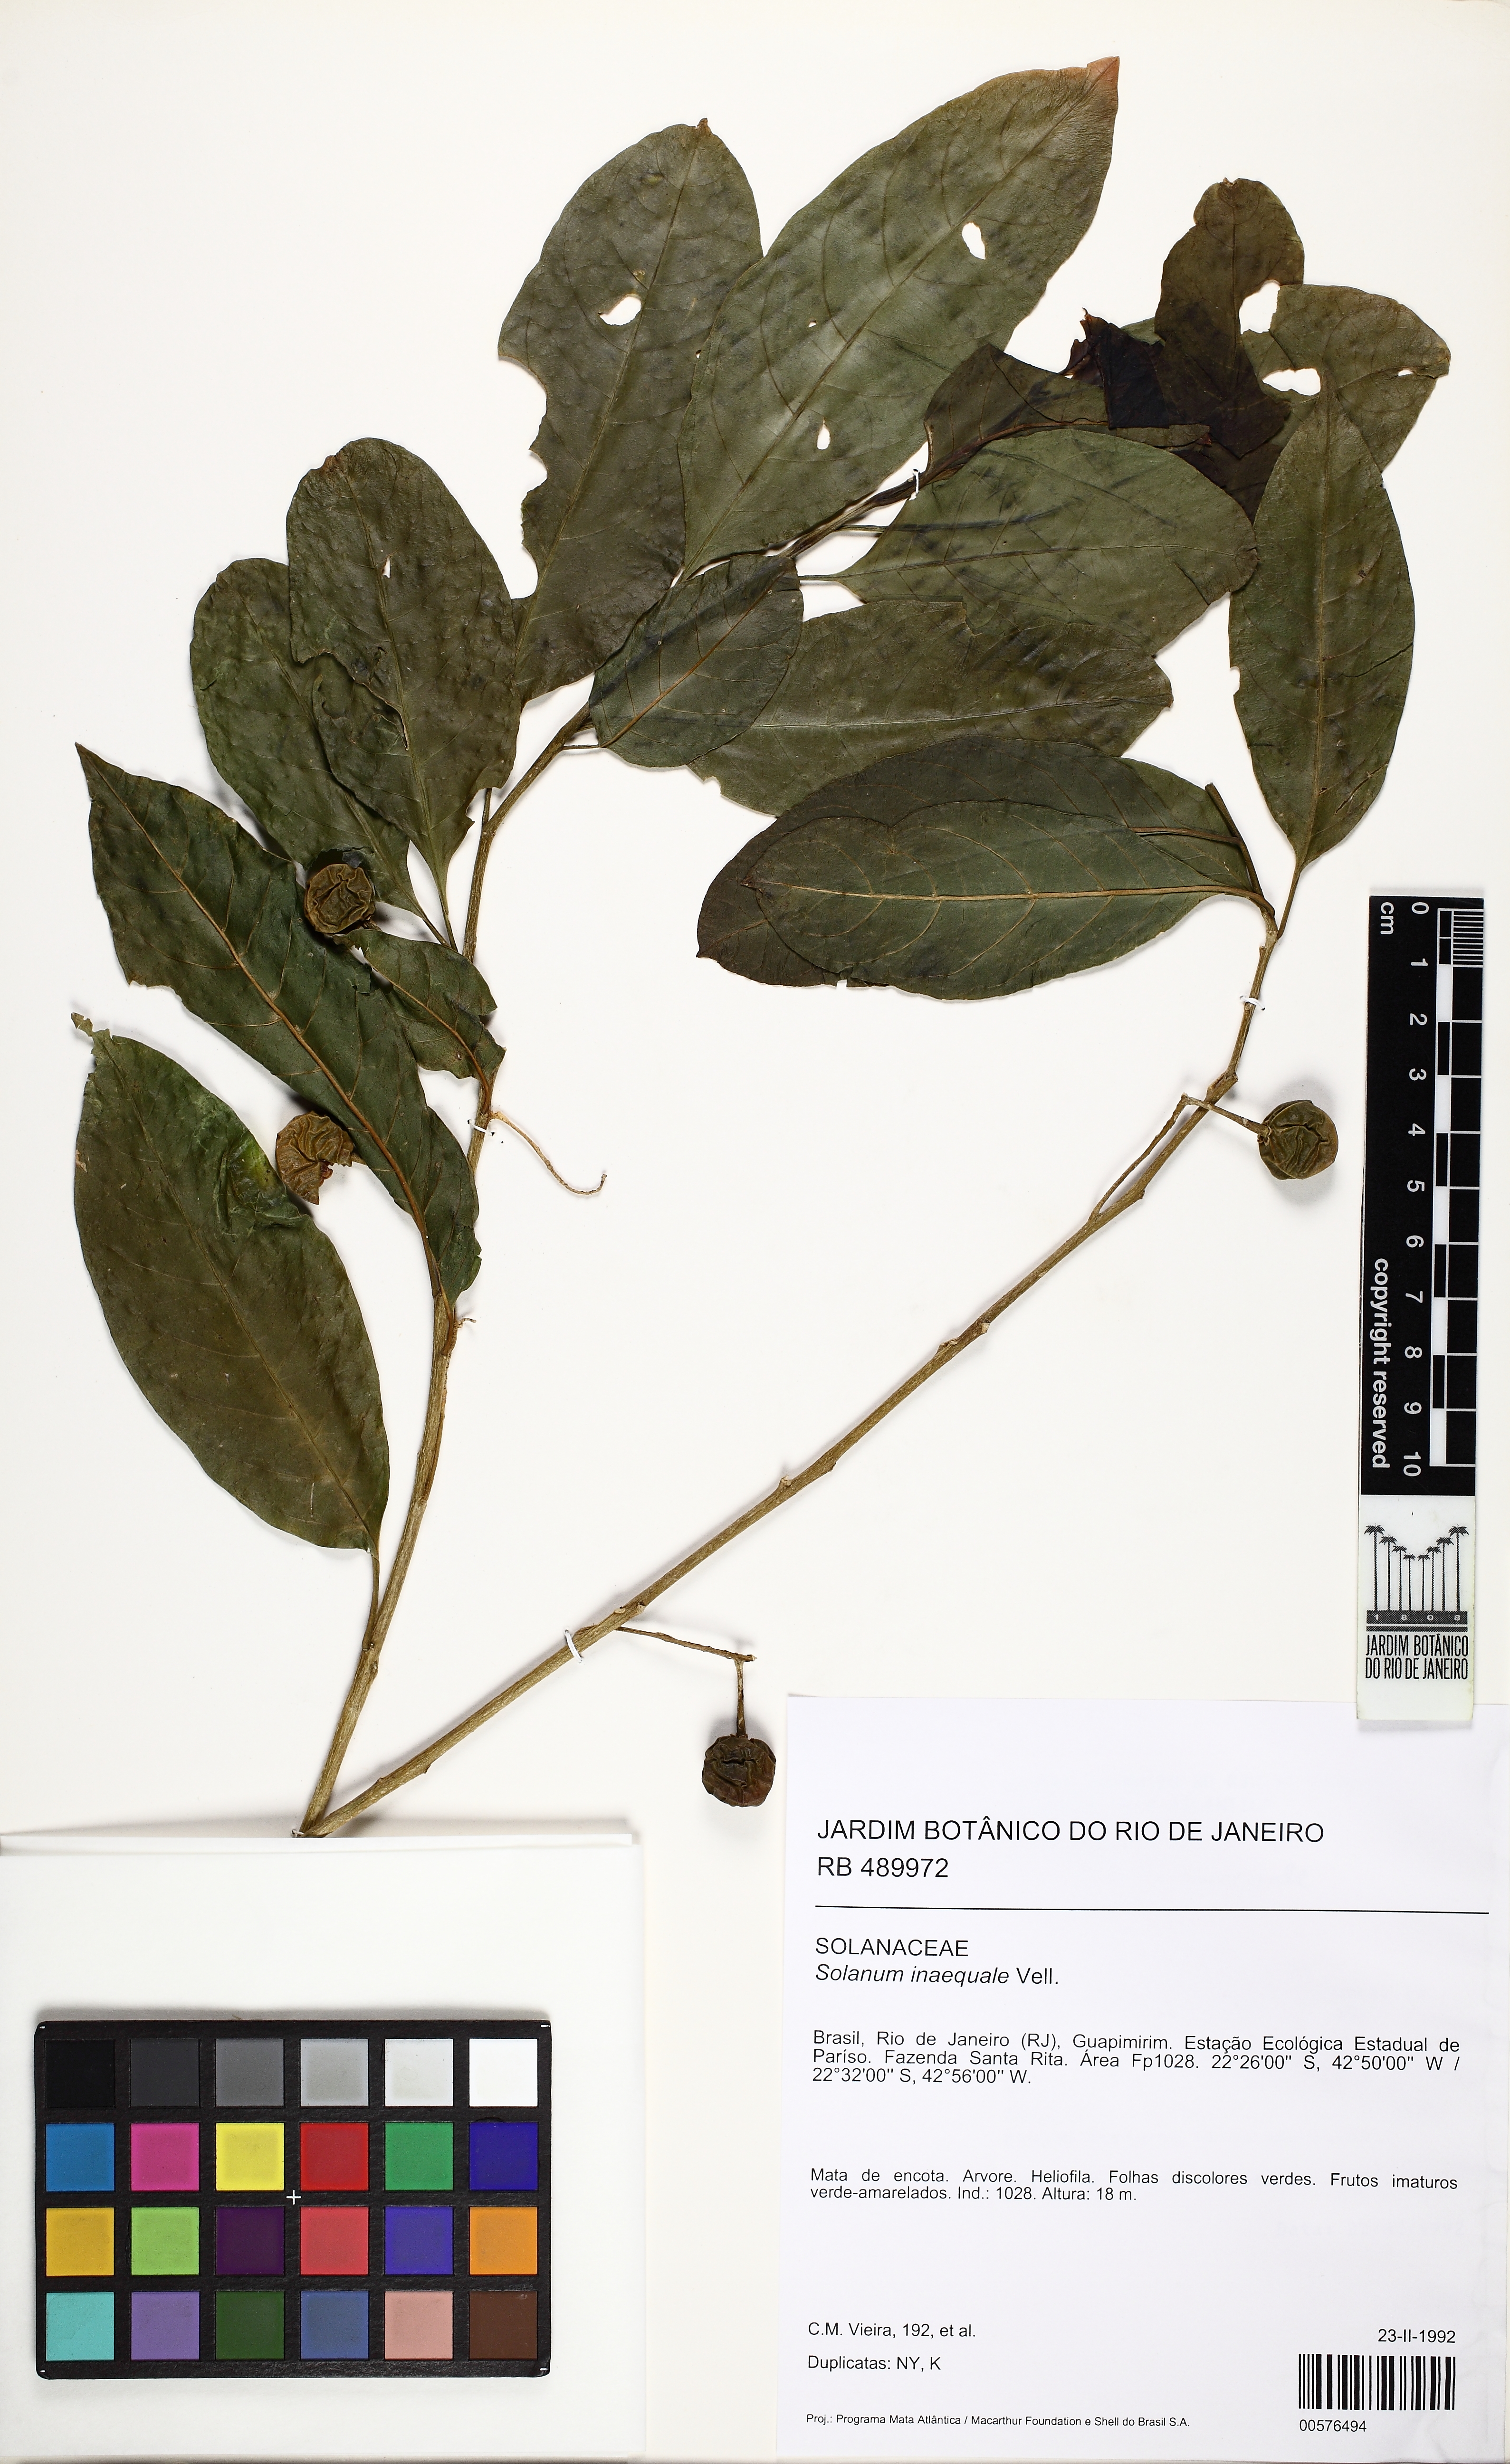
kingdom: Plantae
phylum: Tracheophyta
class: Magnoliopsida
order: Solanales
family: Solanaceae
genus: Solanum
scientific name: Solanum pseudoquina
